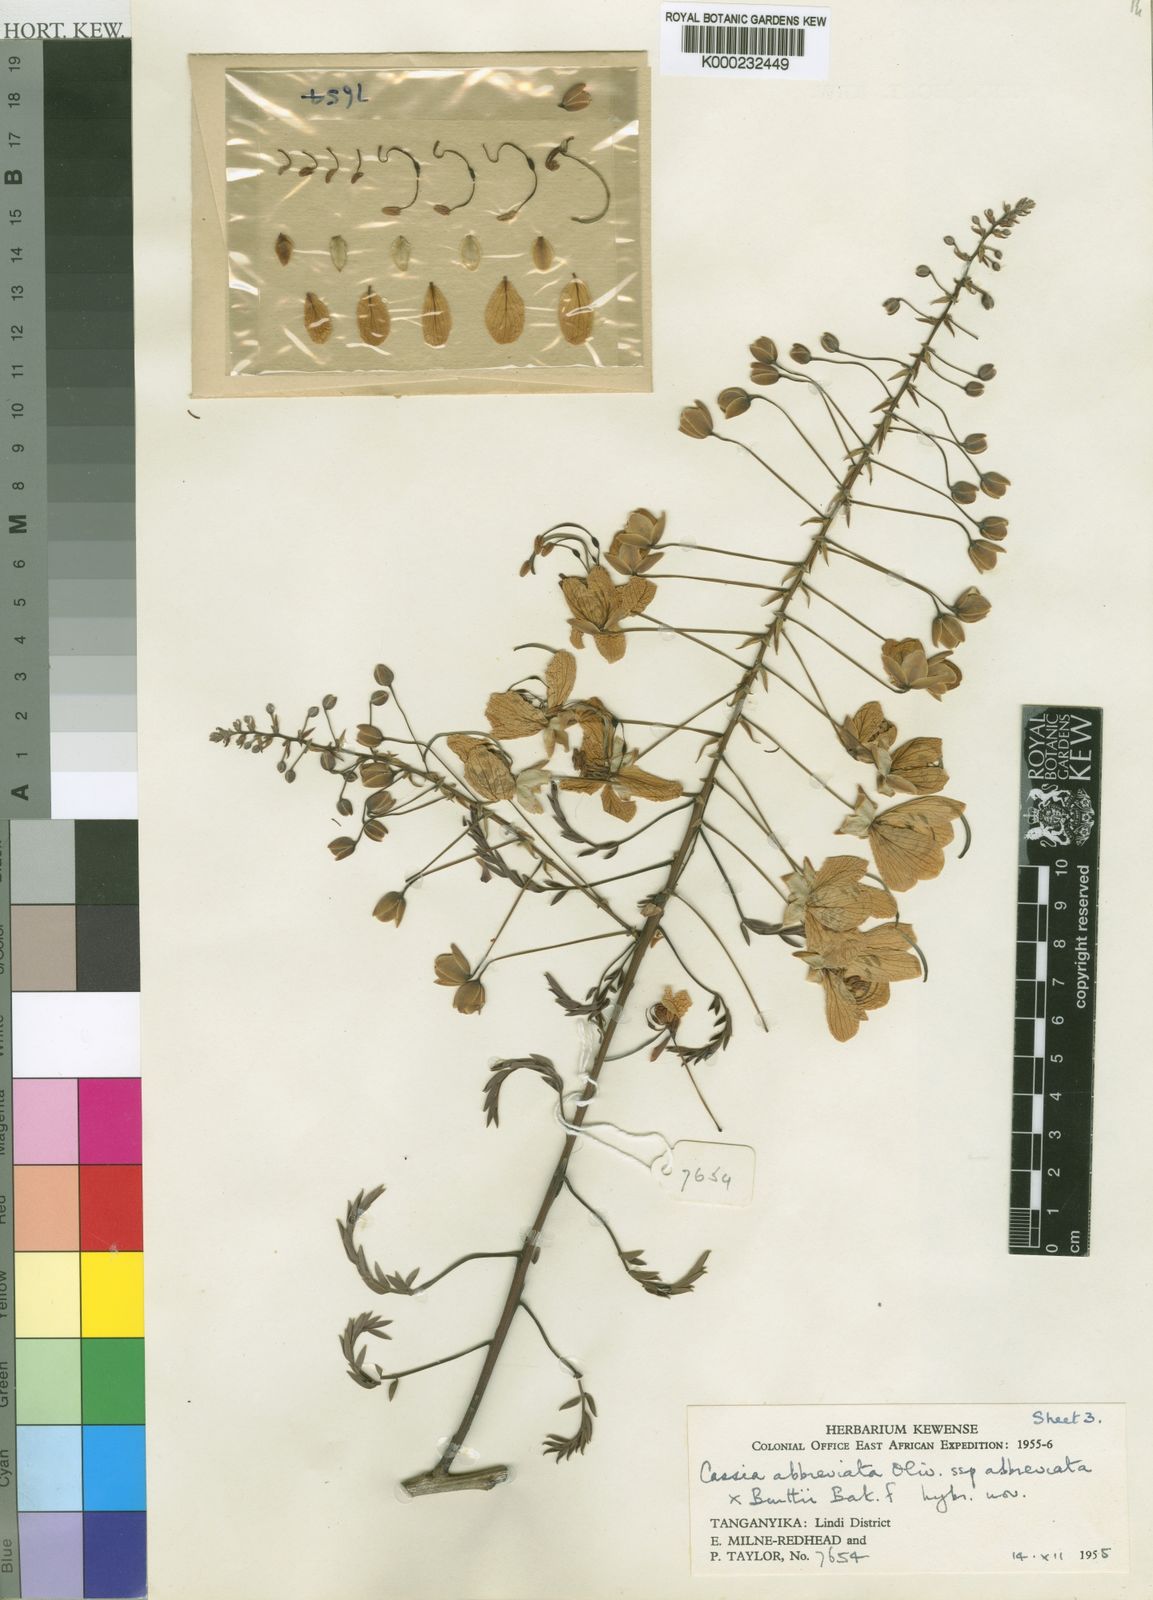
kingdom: Plantae
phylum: Tracheophyta
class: Magnoliopsida
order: Fabales
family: Fabaceae
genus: Cassia
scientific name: Cassia
